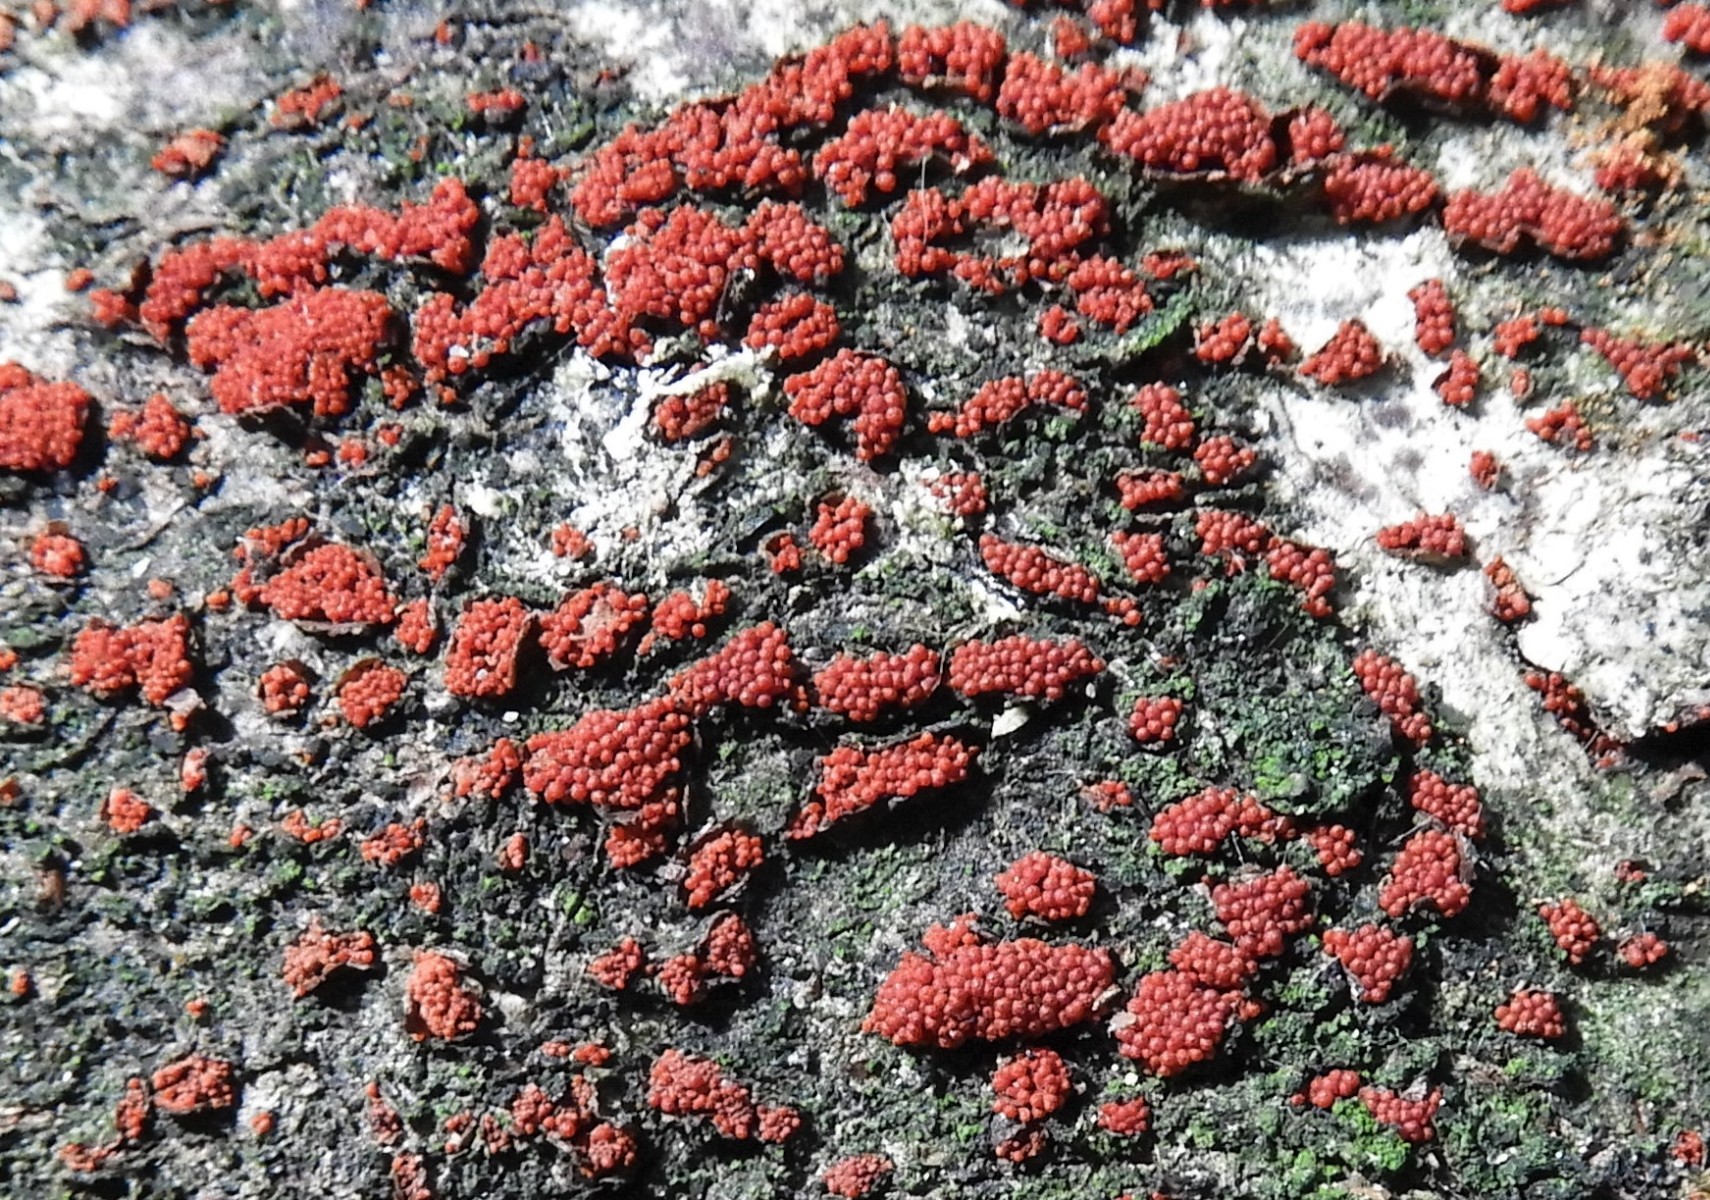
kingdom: Fungi
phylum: Ascomycota
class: Sordariomycetes
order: Hypocreales
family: Nectriaceae
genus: Neonectria
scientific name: Neonectria coccinea
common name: bøgebark-cinnobersvamp
